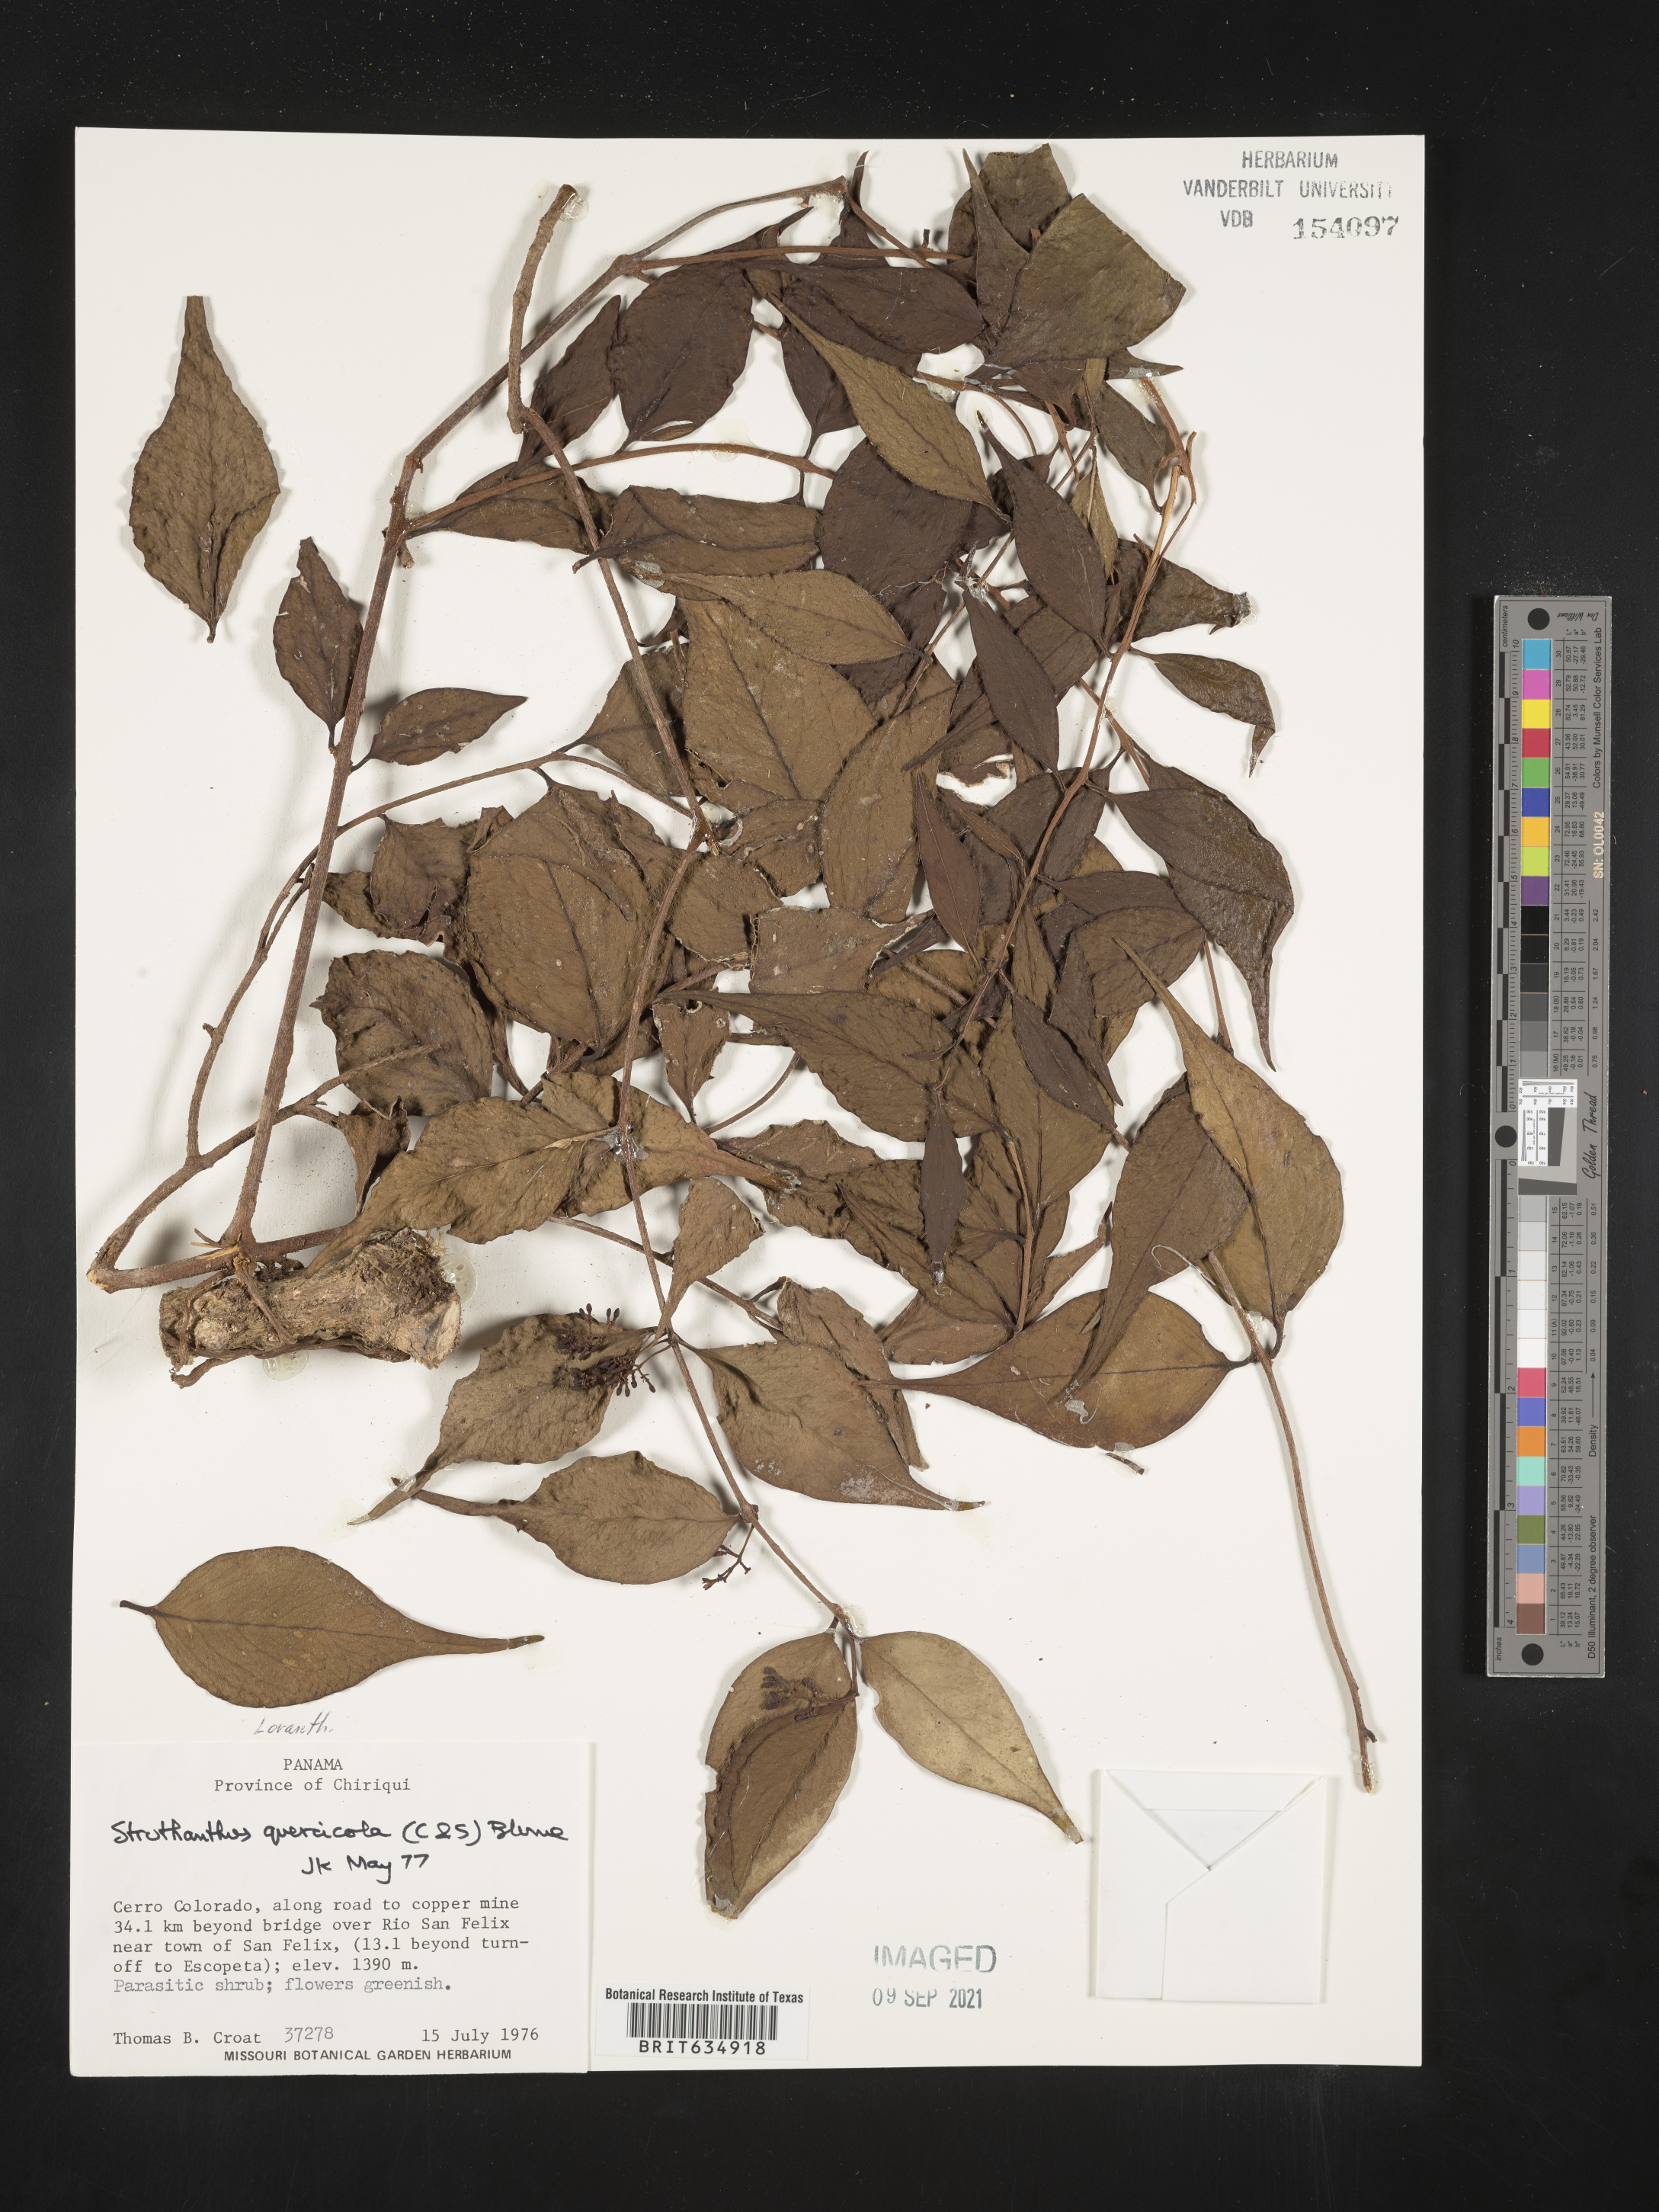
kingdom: Plantae
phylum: Tracheophyta
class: Magnoliopsida
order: Santalales
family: Loranthaceae
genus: Struthanthus
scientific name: Struthanthus
